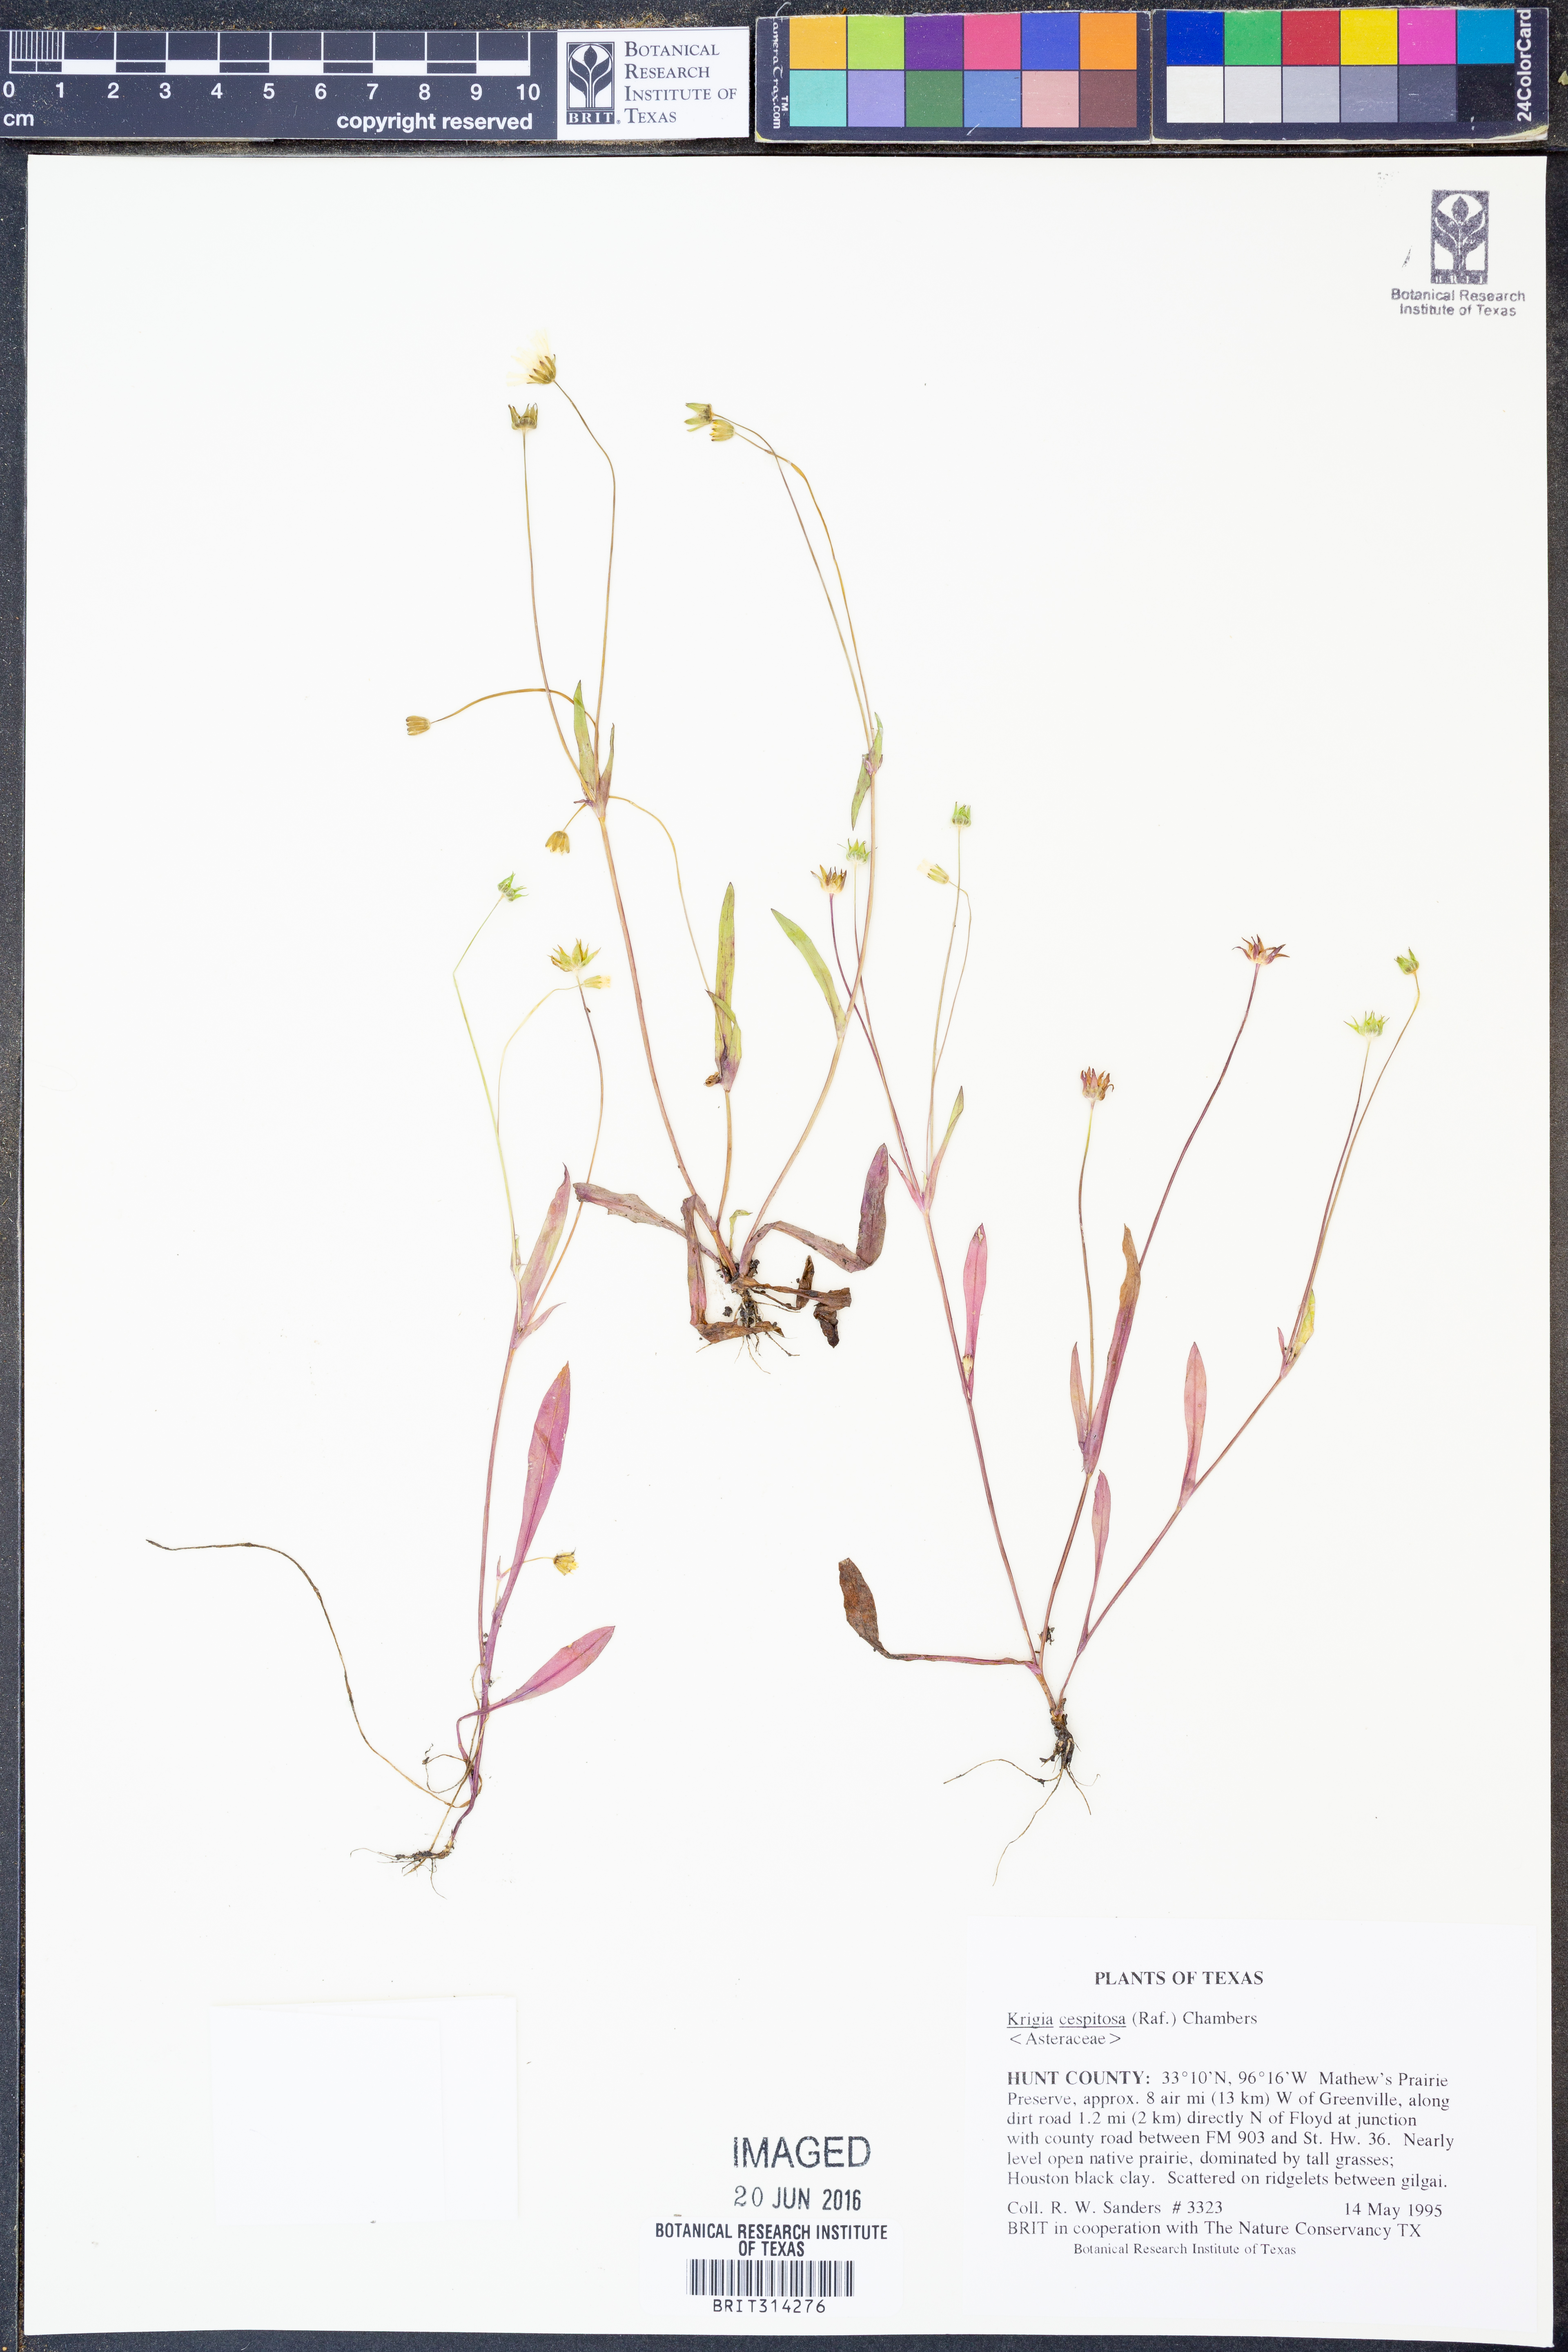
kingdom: Plantae
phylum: Tracheophyta
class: Magnoliopsida
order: Asterales
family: Asteraceae
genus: Krigia
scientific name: Krigia cespitosa
